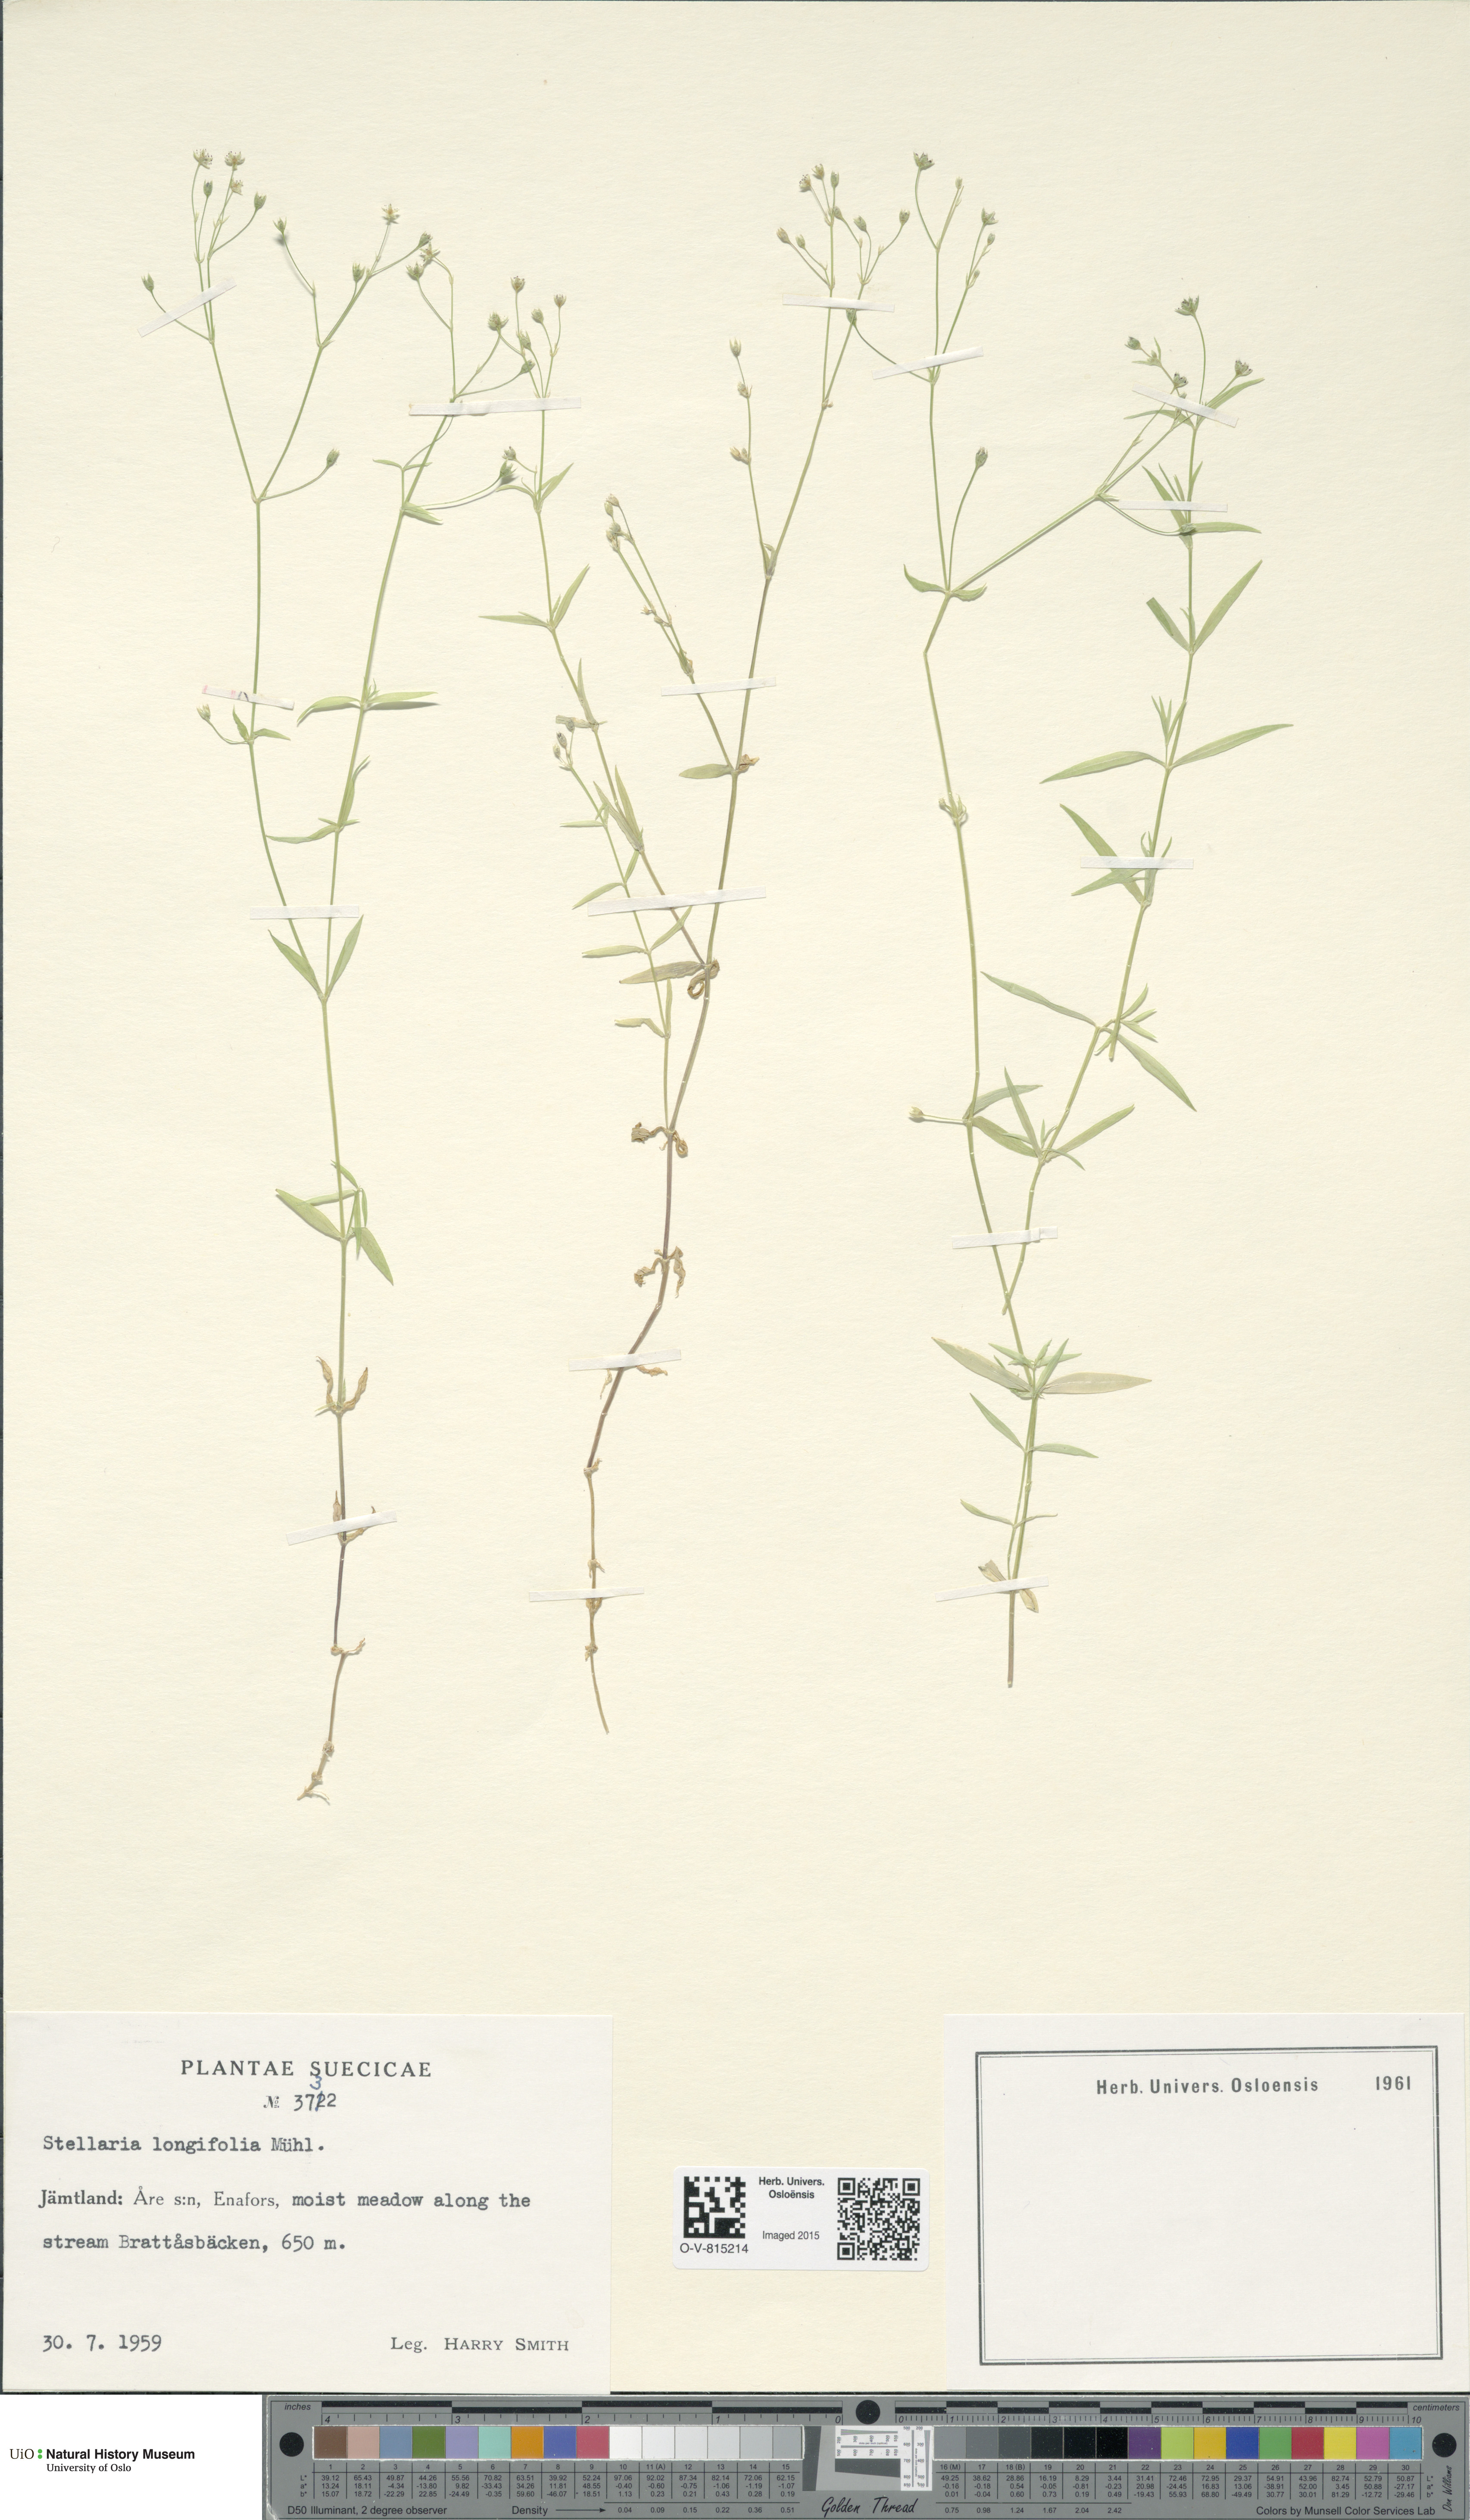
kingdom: Plantae
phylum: Tracheophyta
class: Magnoliopsida
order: Caryophyllales
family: Caryophyllaceae
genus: Stellaria
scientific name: Stellaria longifolia
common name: Long-leaved chickweed
